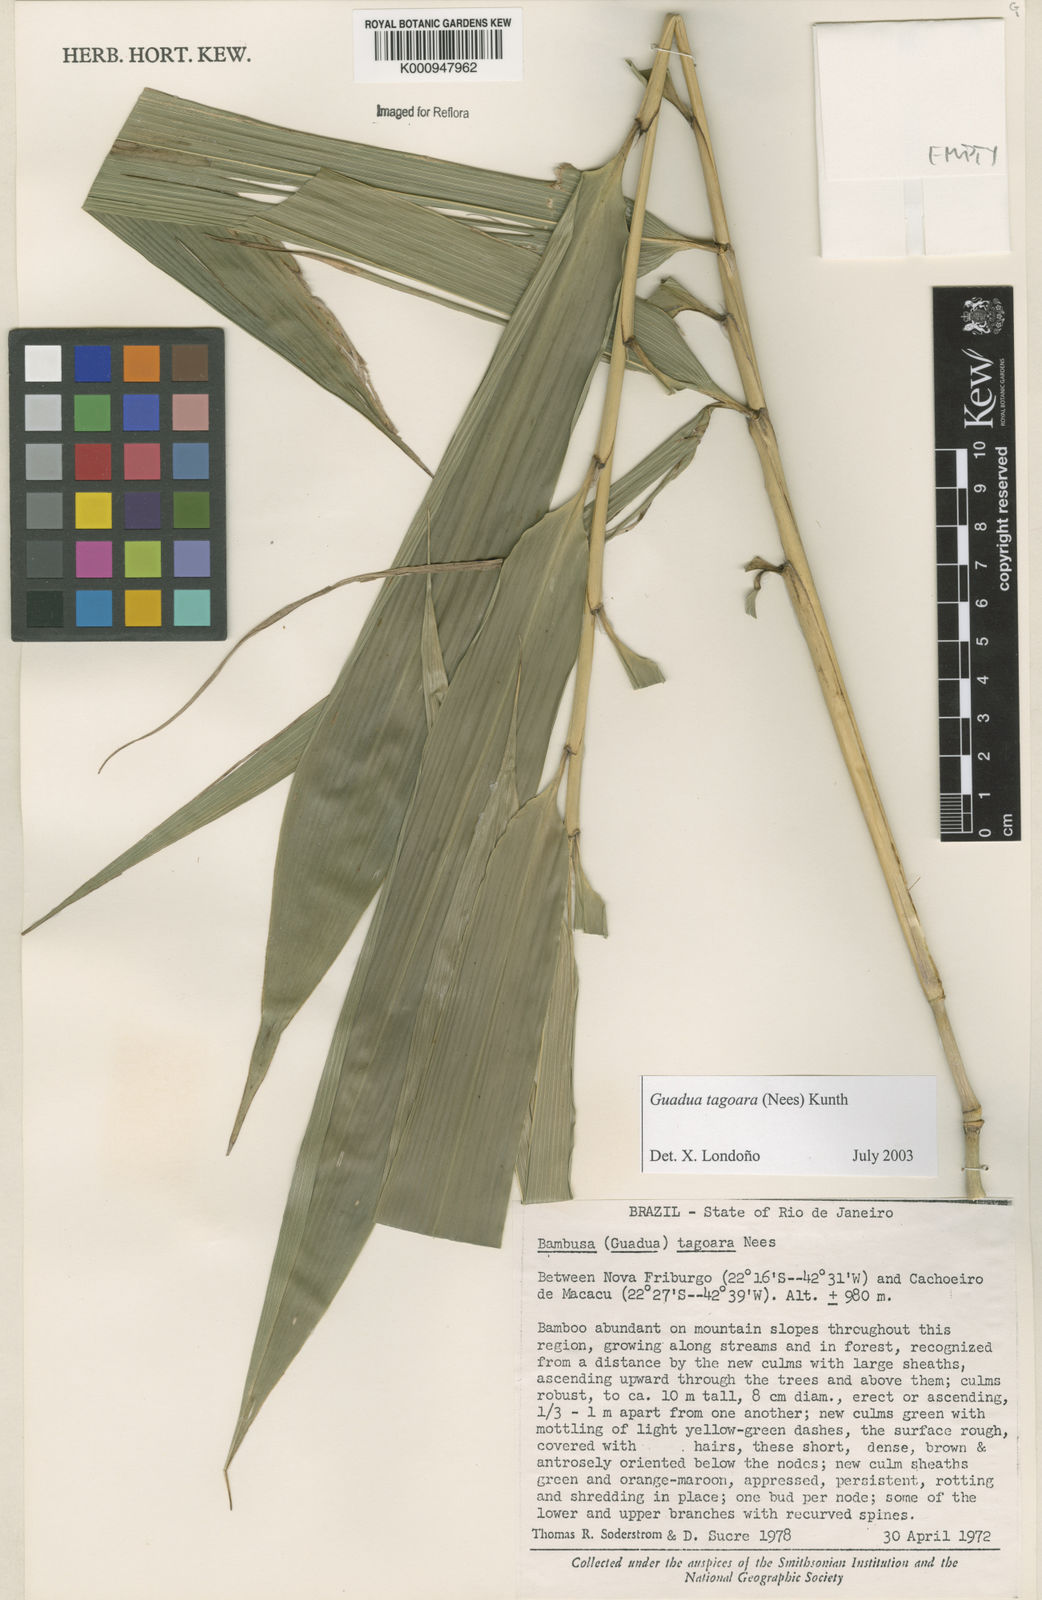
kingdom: Plantae
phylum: Tracheophyta
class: Liliopsida
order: Poales
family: Poaceae
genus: Guadua
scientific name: Guadua tagoara
